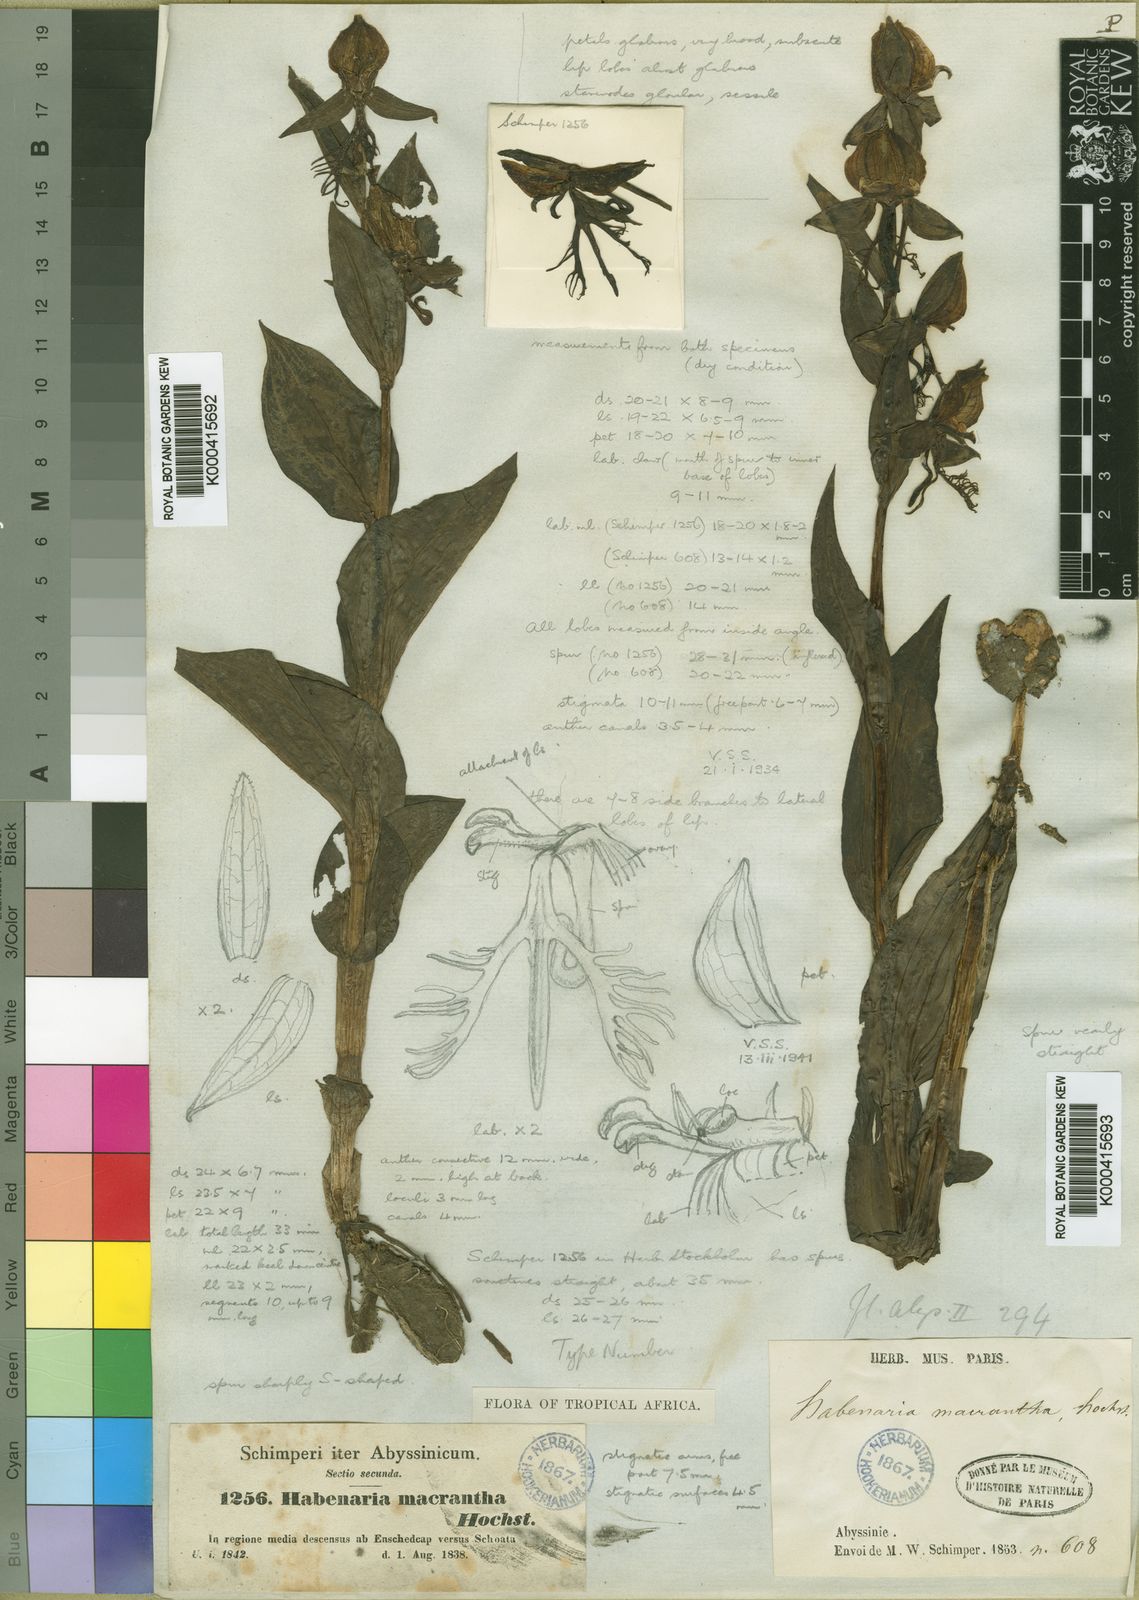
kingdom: Plantae
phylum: Tracheophyta
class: Liliopsida
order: Asparagales
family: Orchidaceae
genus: Habenaria
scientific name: Habenaria macrantha
